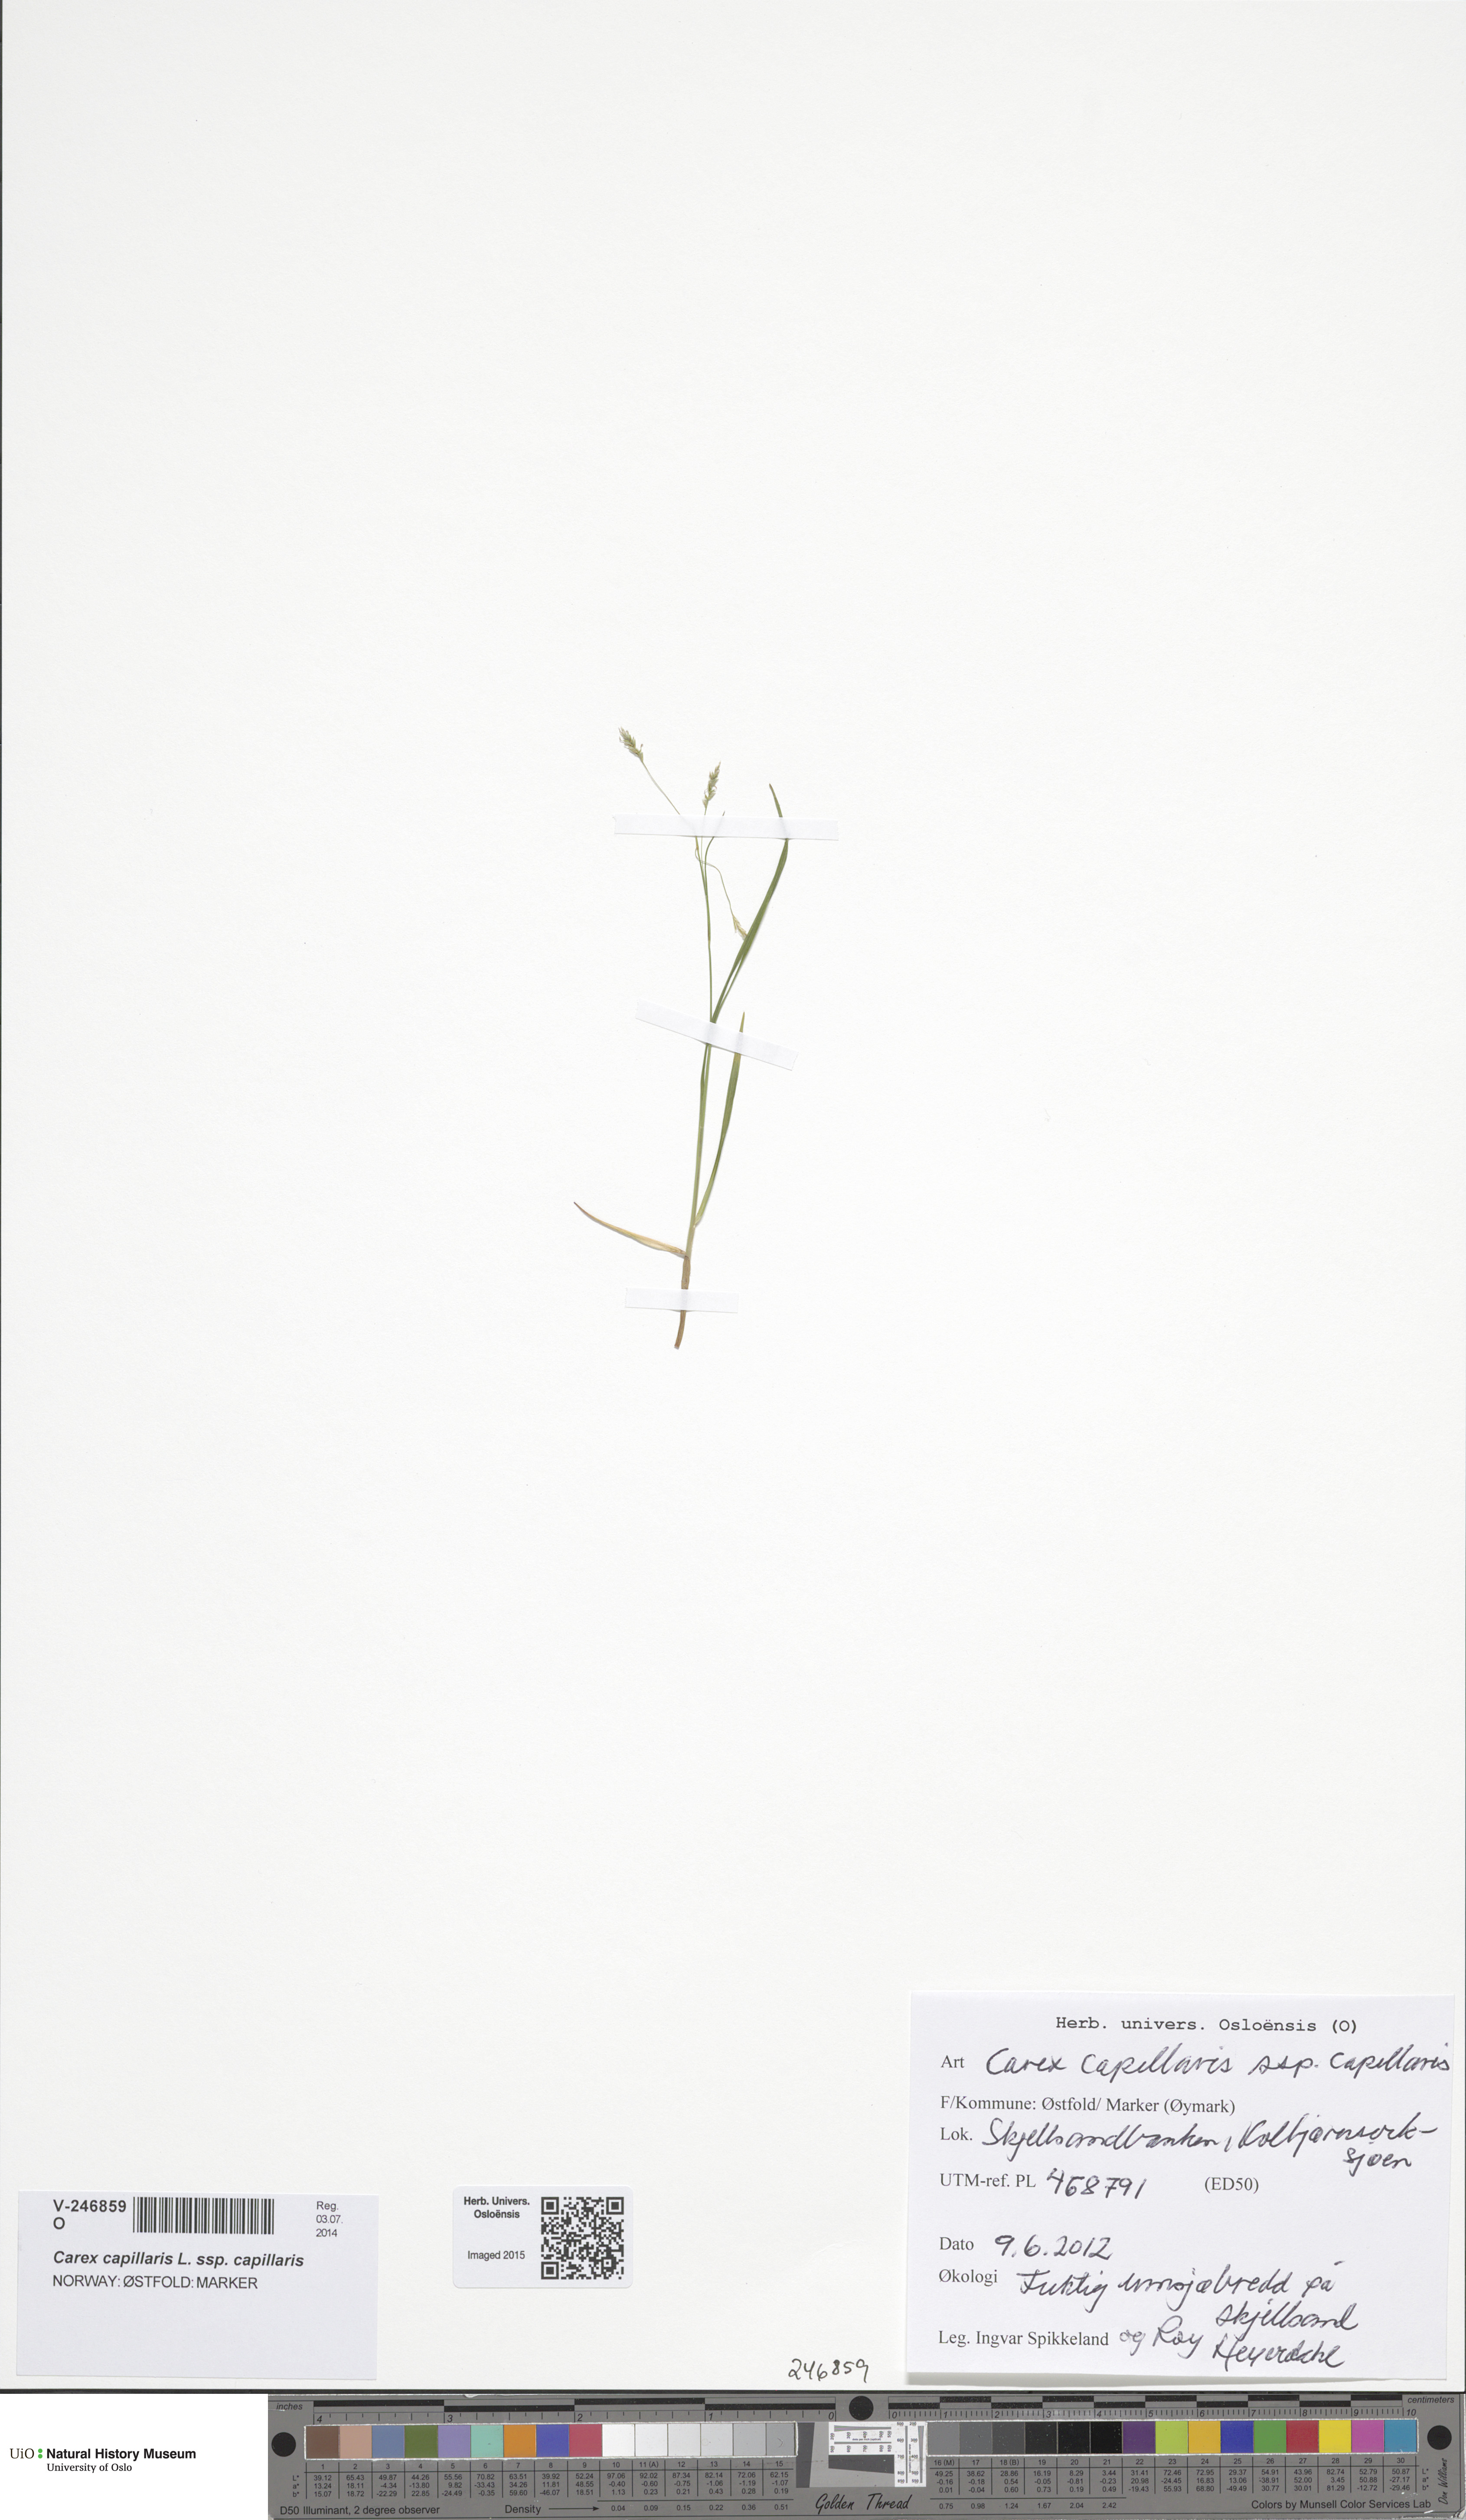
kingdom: Plantae
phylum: Tracheophyta
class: Liliopsida
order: Poales
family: Cyperaceae
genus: Carex
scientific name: Carex capillaris
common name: Hair sedge
